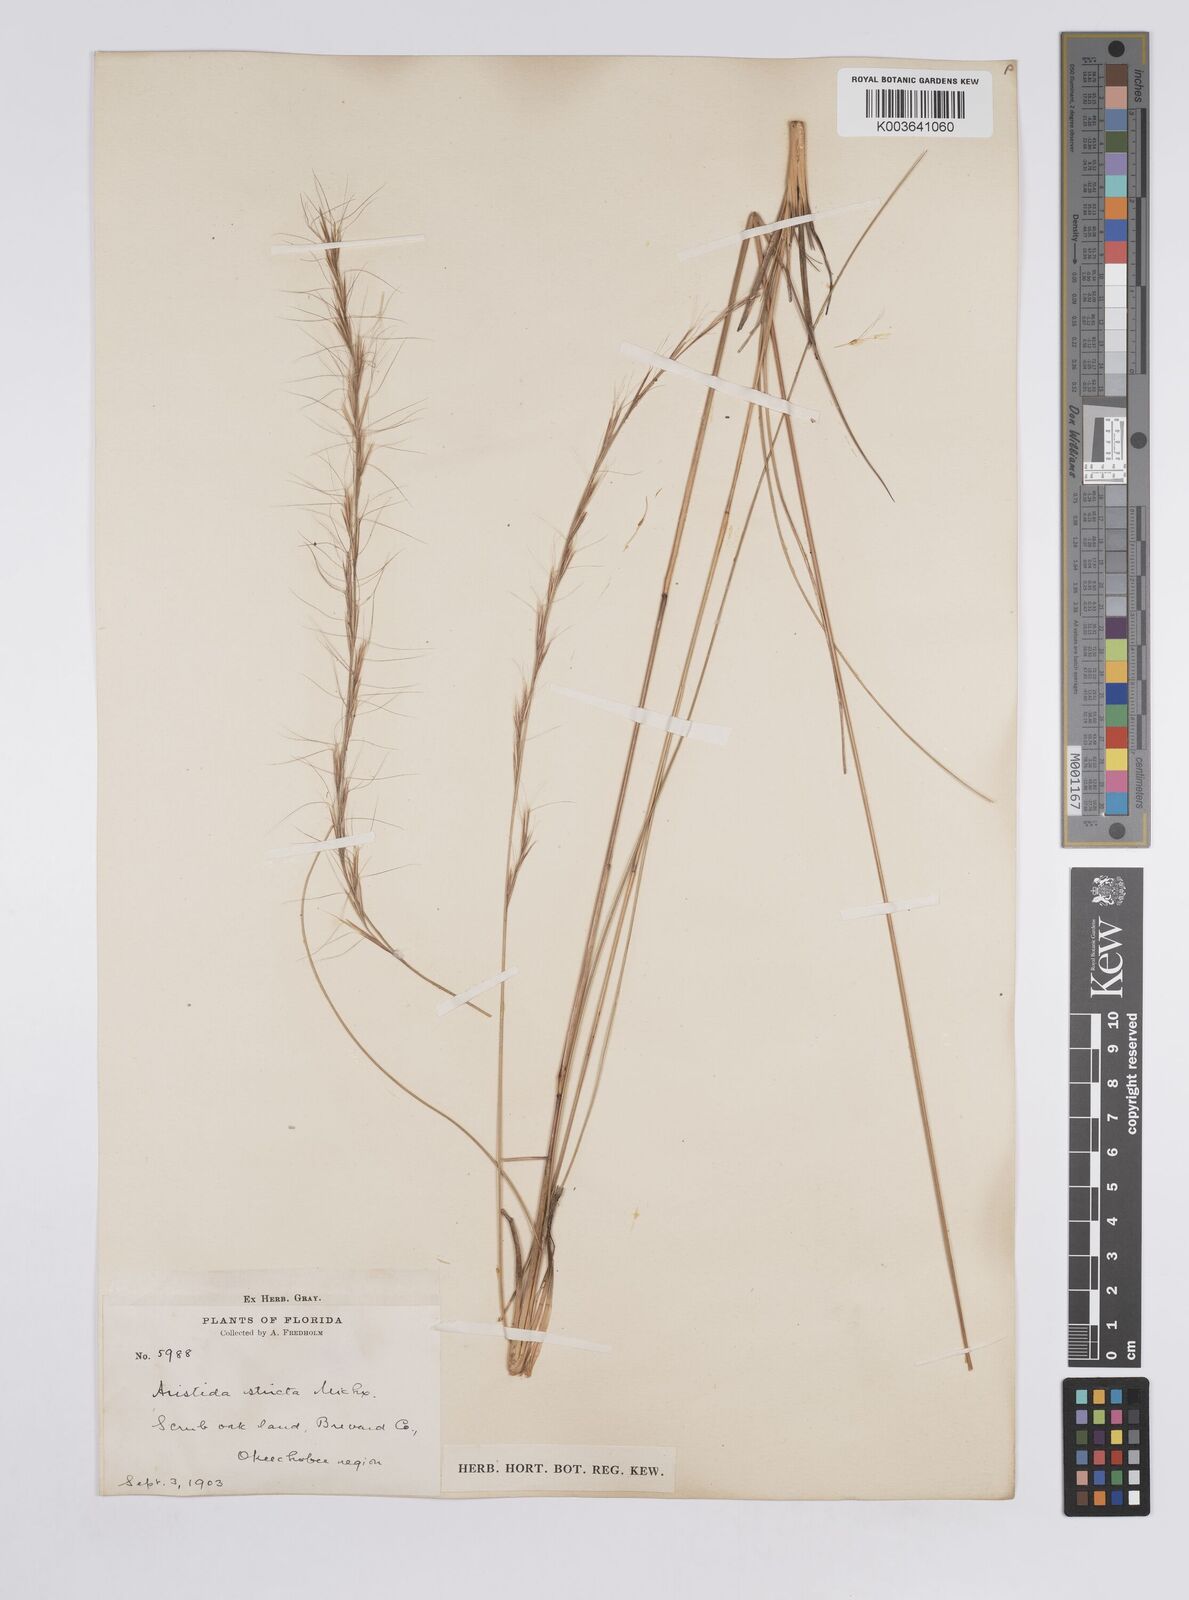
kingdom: Plantae
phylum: Tracheophyta
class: Liliopsida
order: Poales
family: Poaceae
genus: Aristida
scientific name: Aristida stricta
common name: Pineland three-awn
